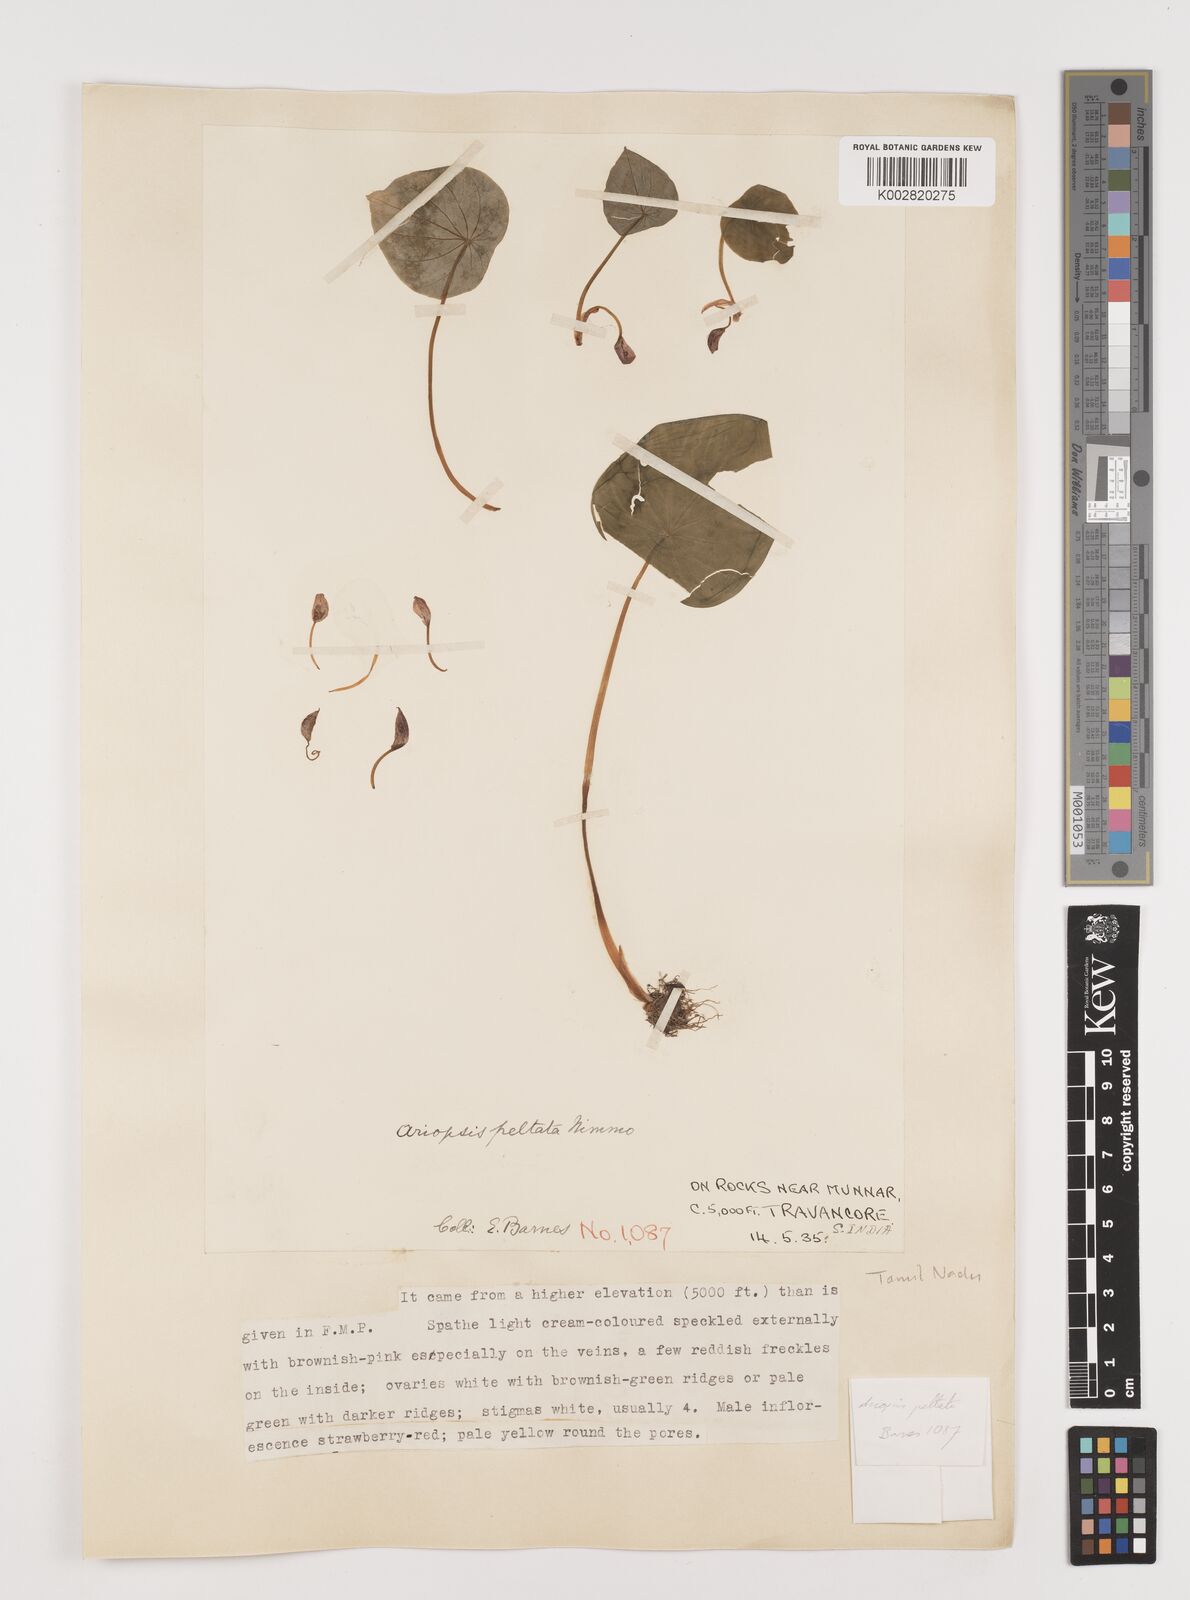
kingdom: Plantae
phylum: Tracheophyta
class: Liliopsida
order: Alismatales
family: Araceae
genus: Ariopsis
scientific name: Ariopsis peltata
